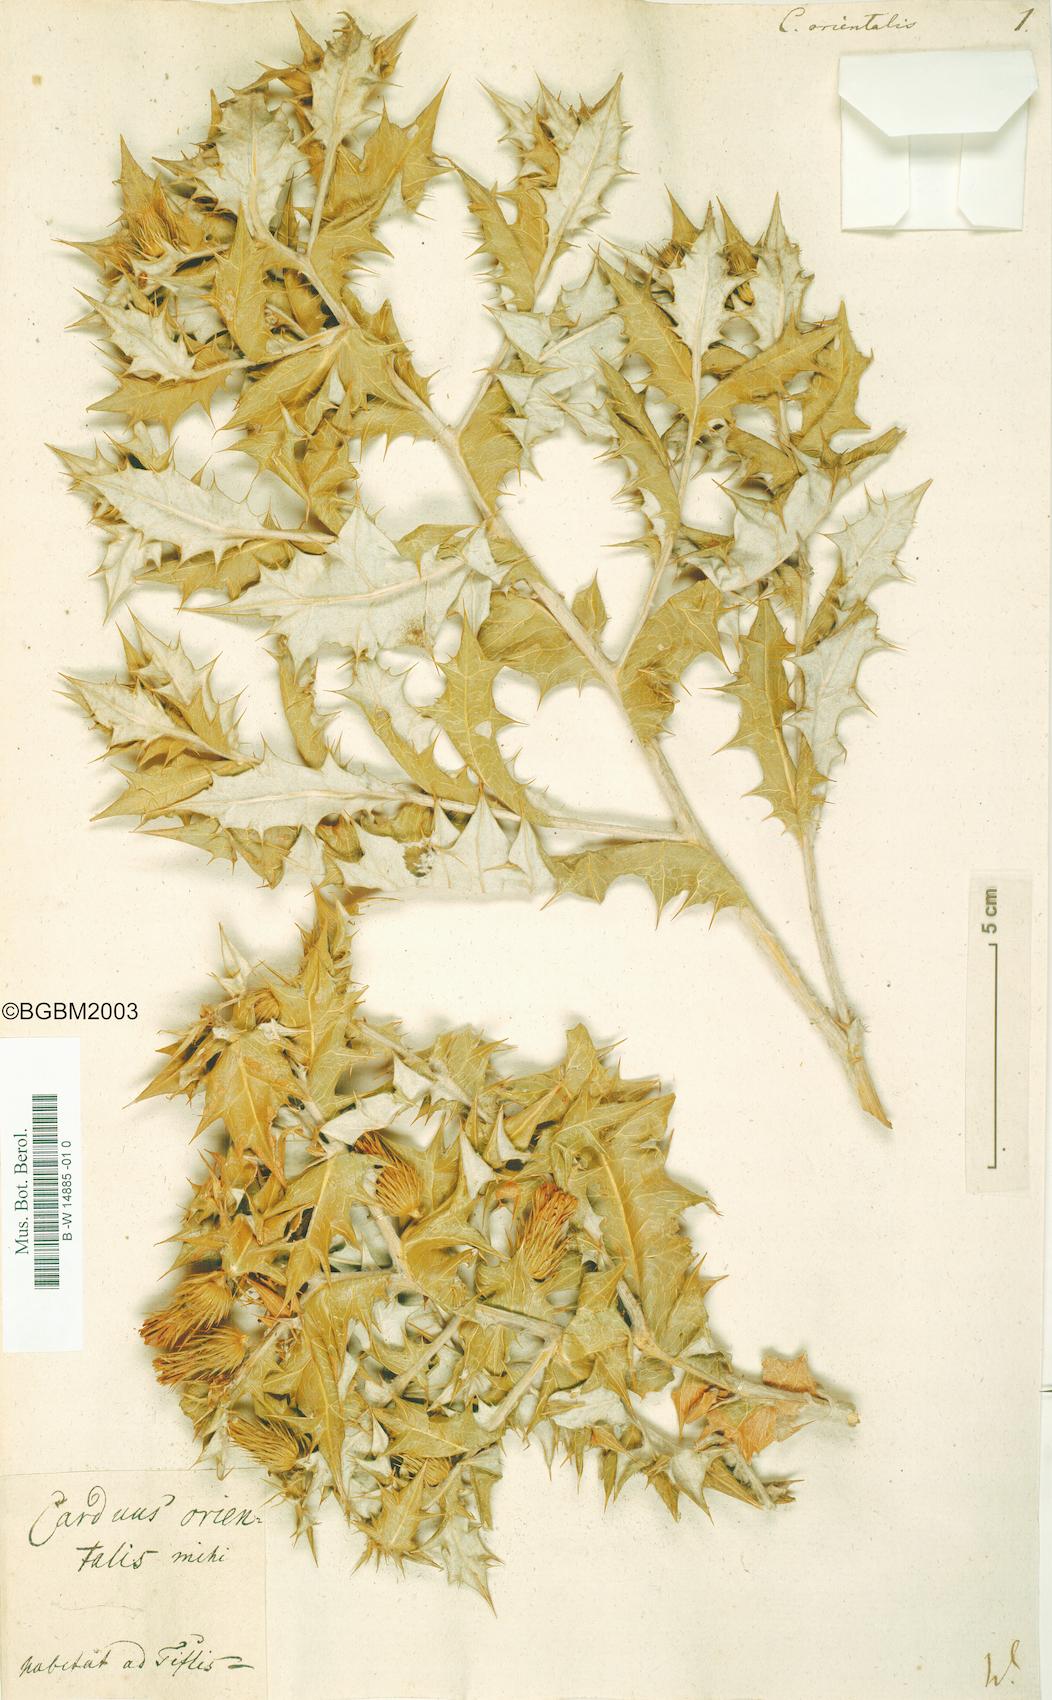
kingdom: Plantae
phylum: Tracheophyta
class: Magnoliopsida
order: Asterales
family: Asteraceae
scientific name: Asteraceae
